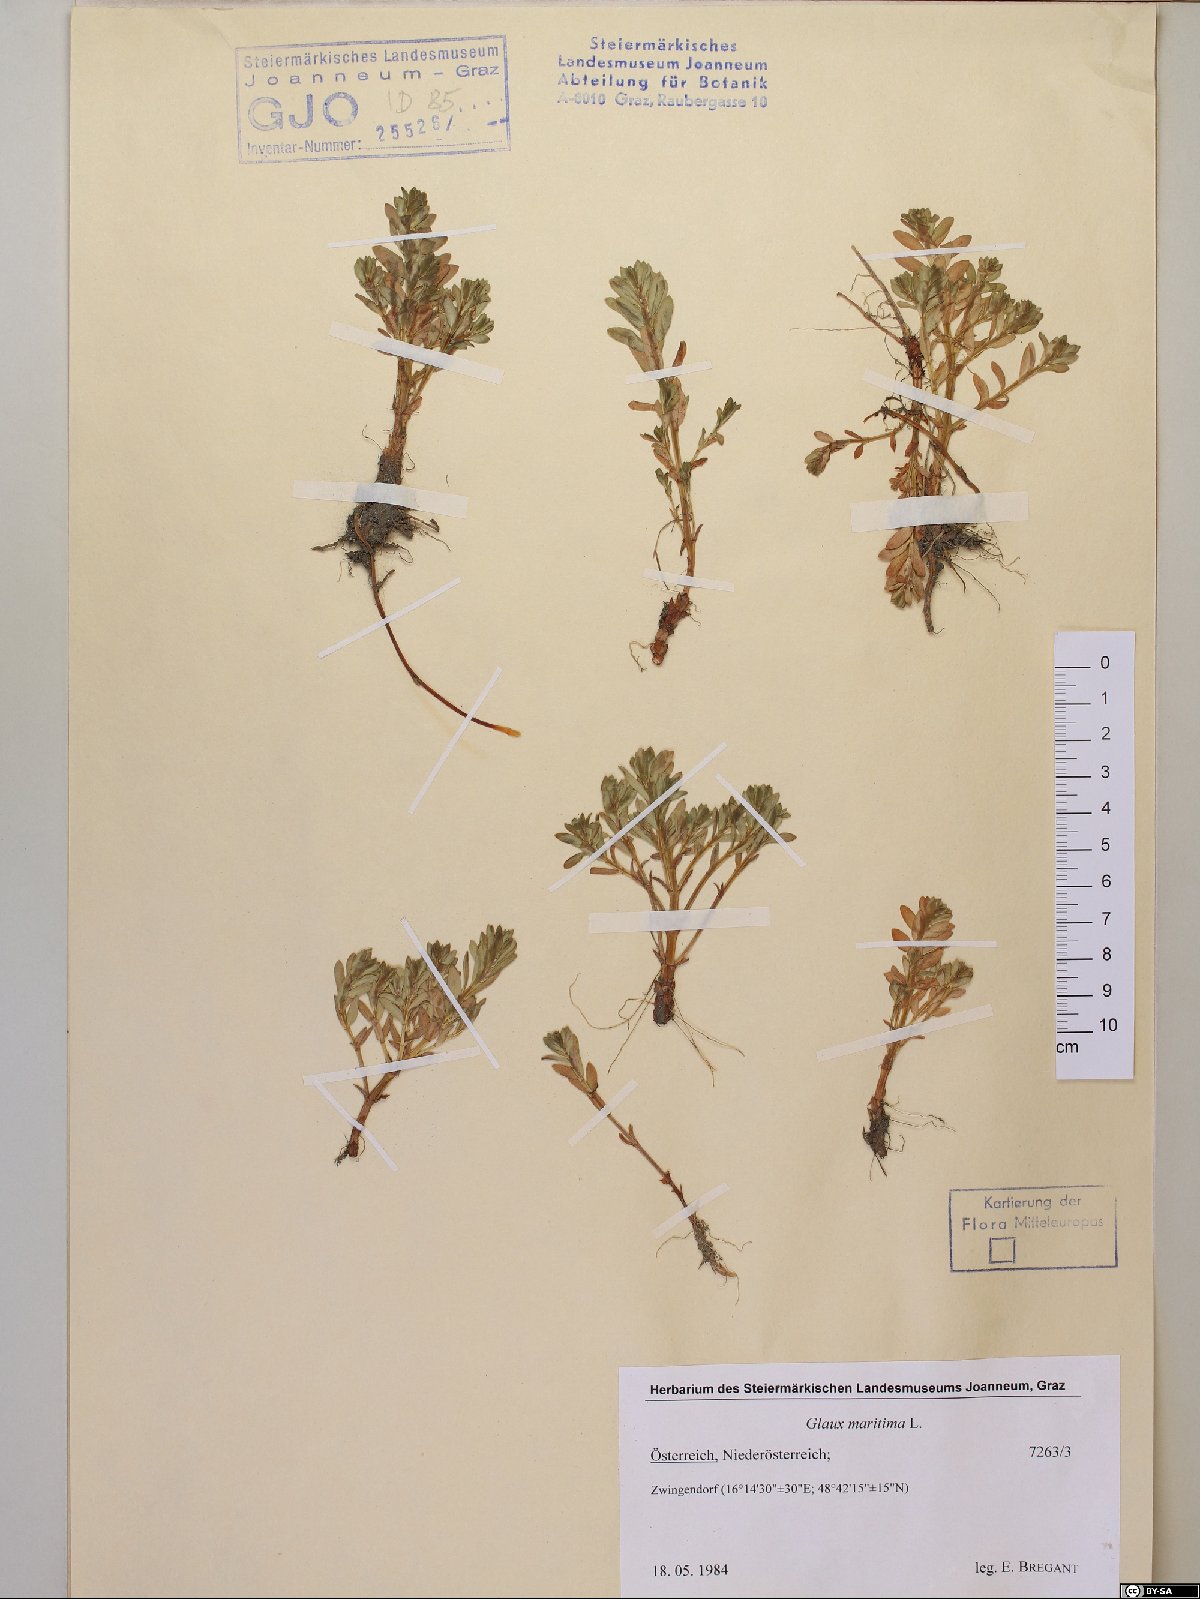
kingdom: Plantae
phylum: Tracheophyta
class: Magnoliopsida
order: Ericales
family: Primulaceae
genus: Lysimachia
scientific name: Lysimachia maritima
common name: Sea milkwort
